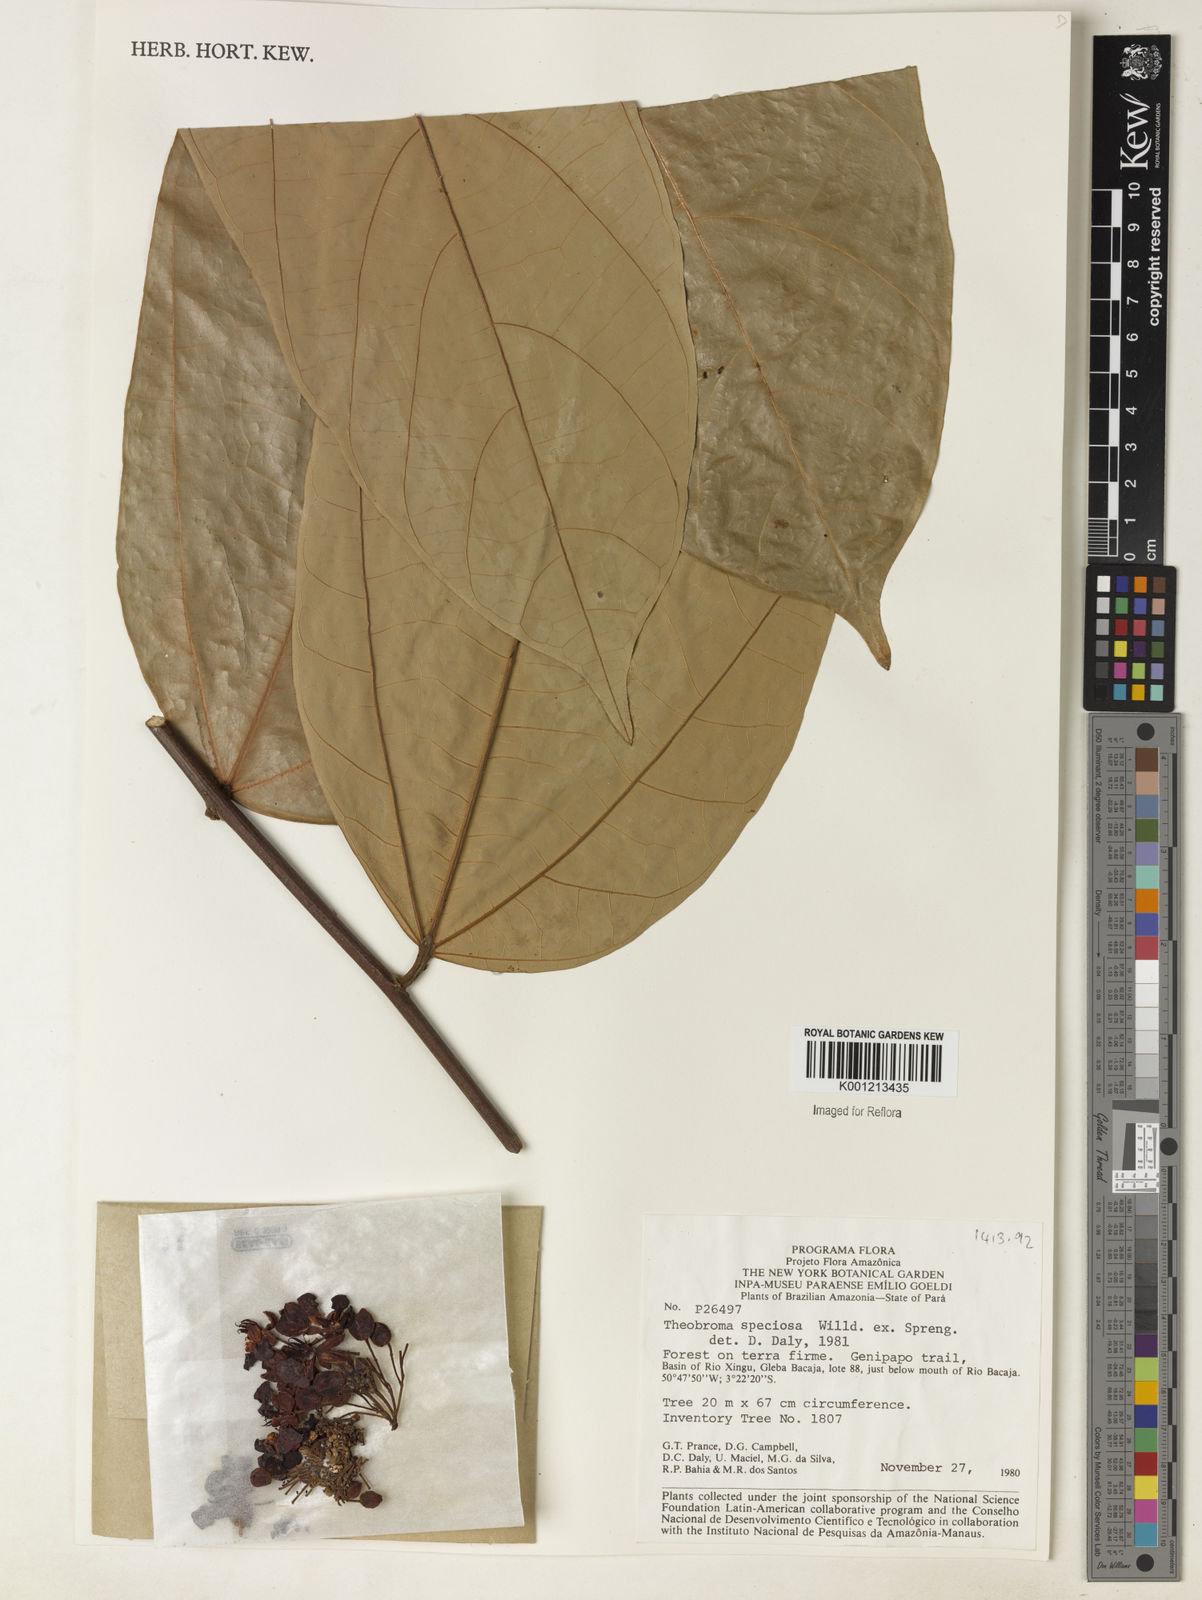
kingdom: Plantae
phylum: Tracheophyta
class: Magnoliopsida
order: Malvales
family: Malvaceae
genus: Theobroma
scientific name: Theobroma speciosum
